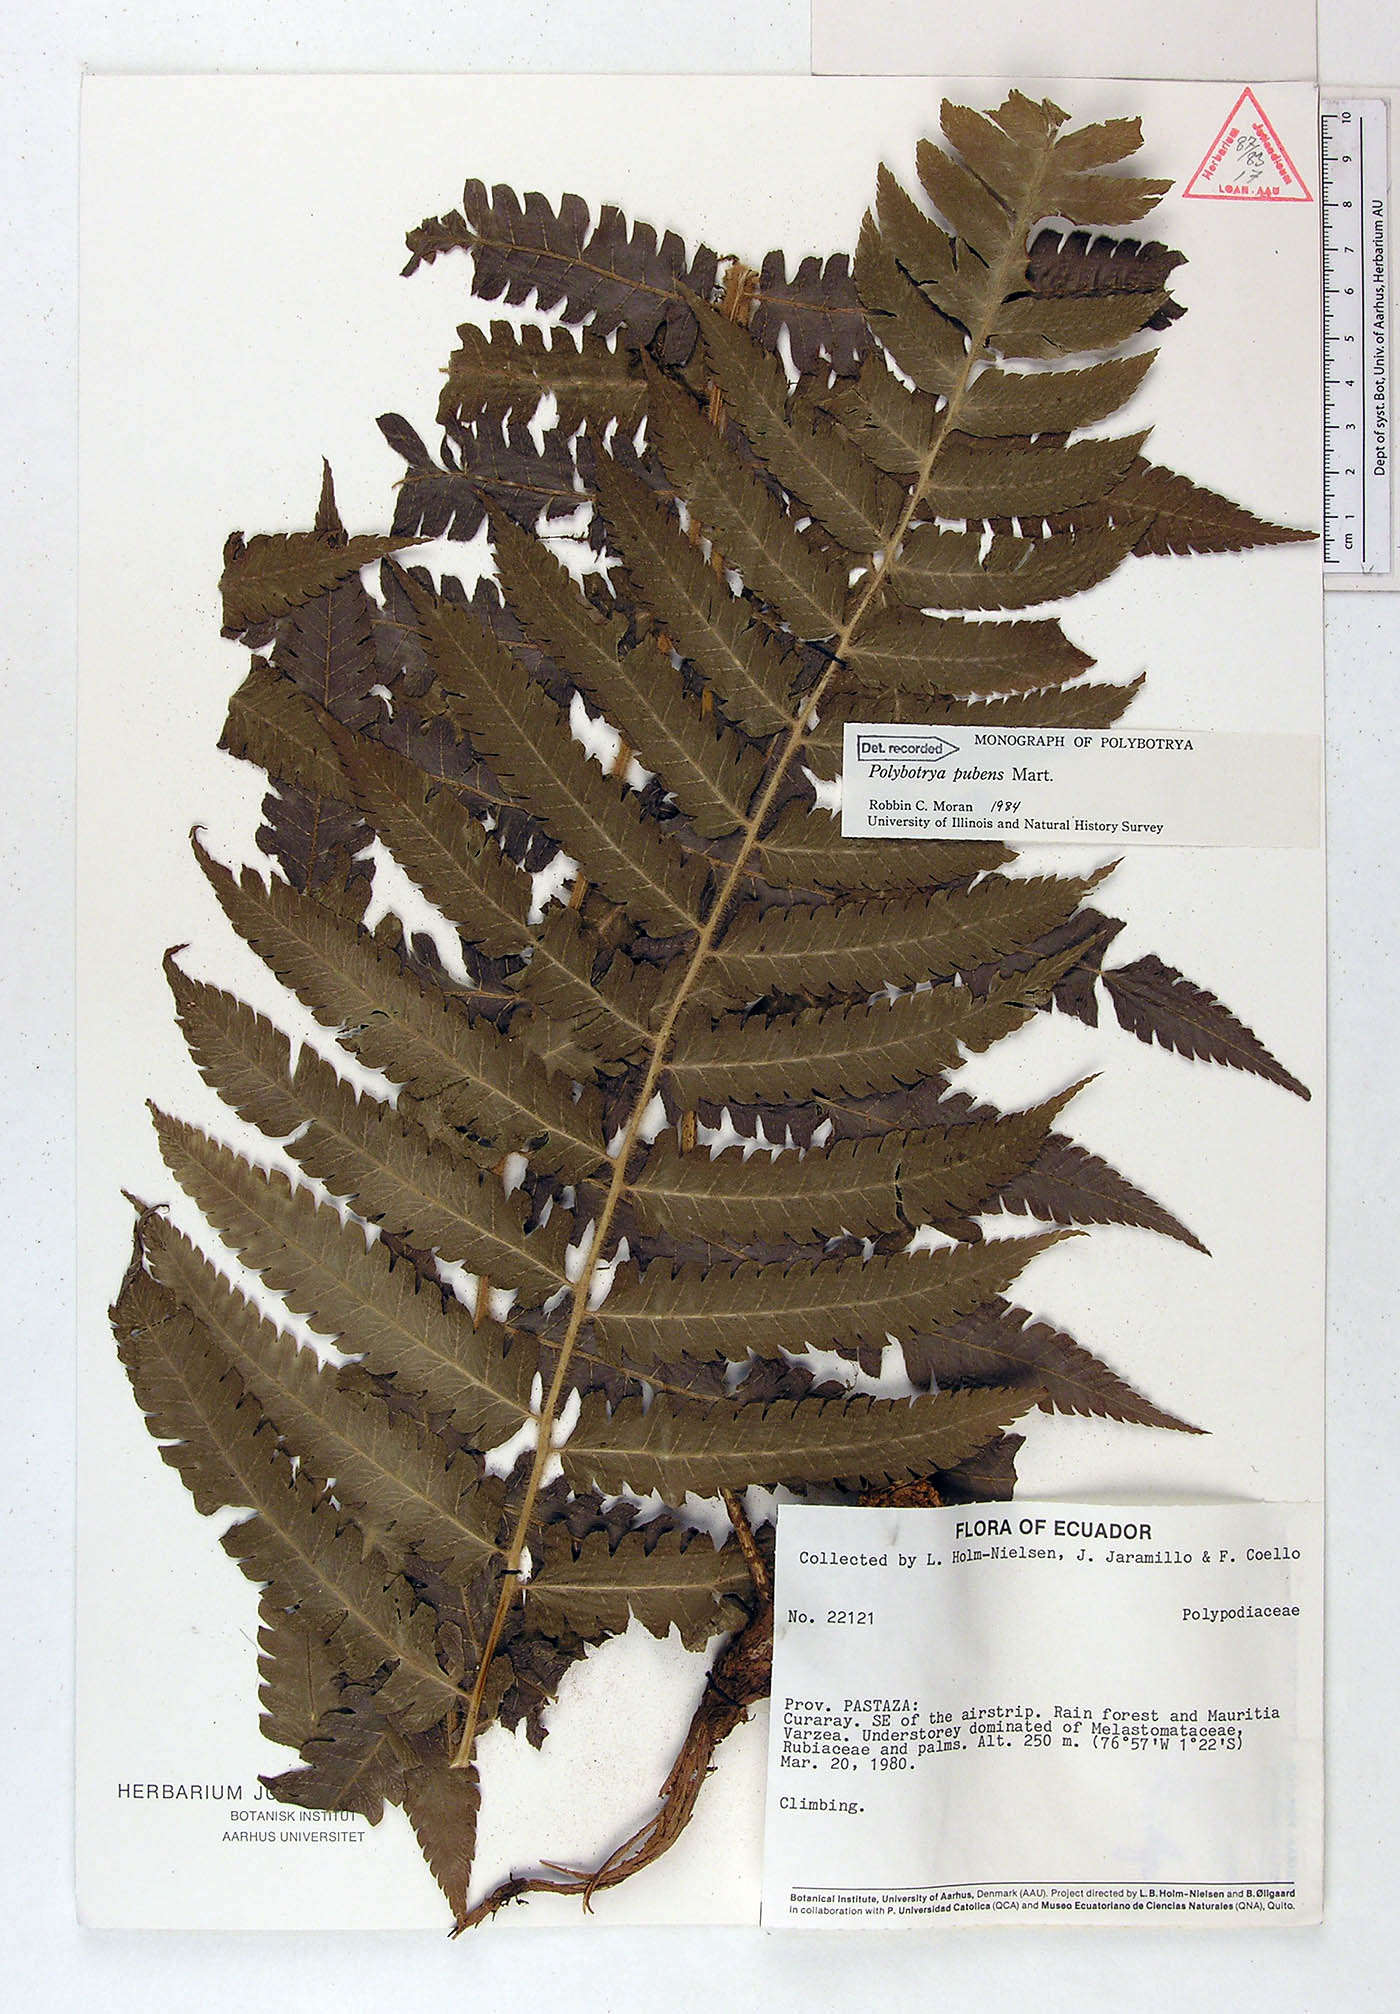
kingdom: Plantae
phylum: Tracheophyta
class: Polypodiopsida
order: Polypodiales
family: Dryopteridaceae
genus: Polybotrya
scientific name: Polybotrya pubens
